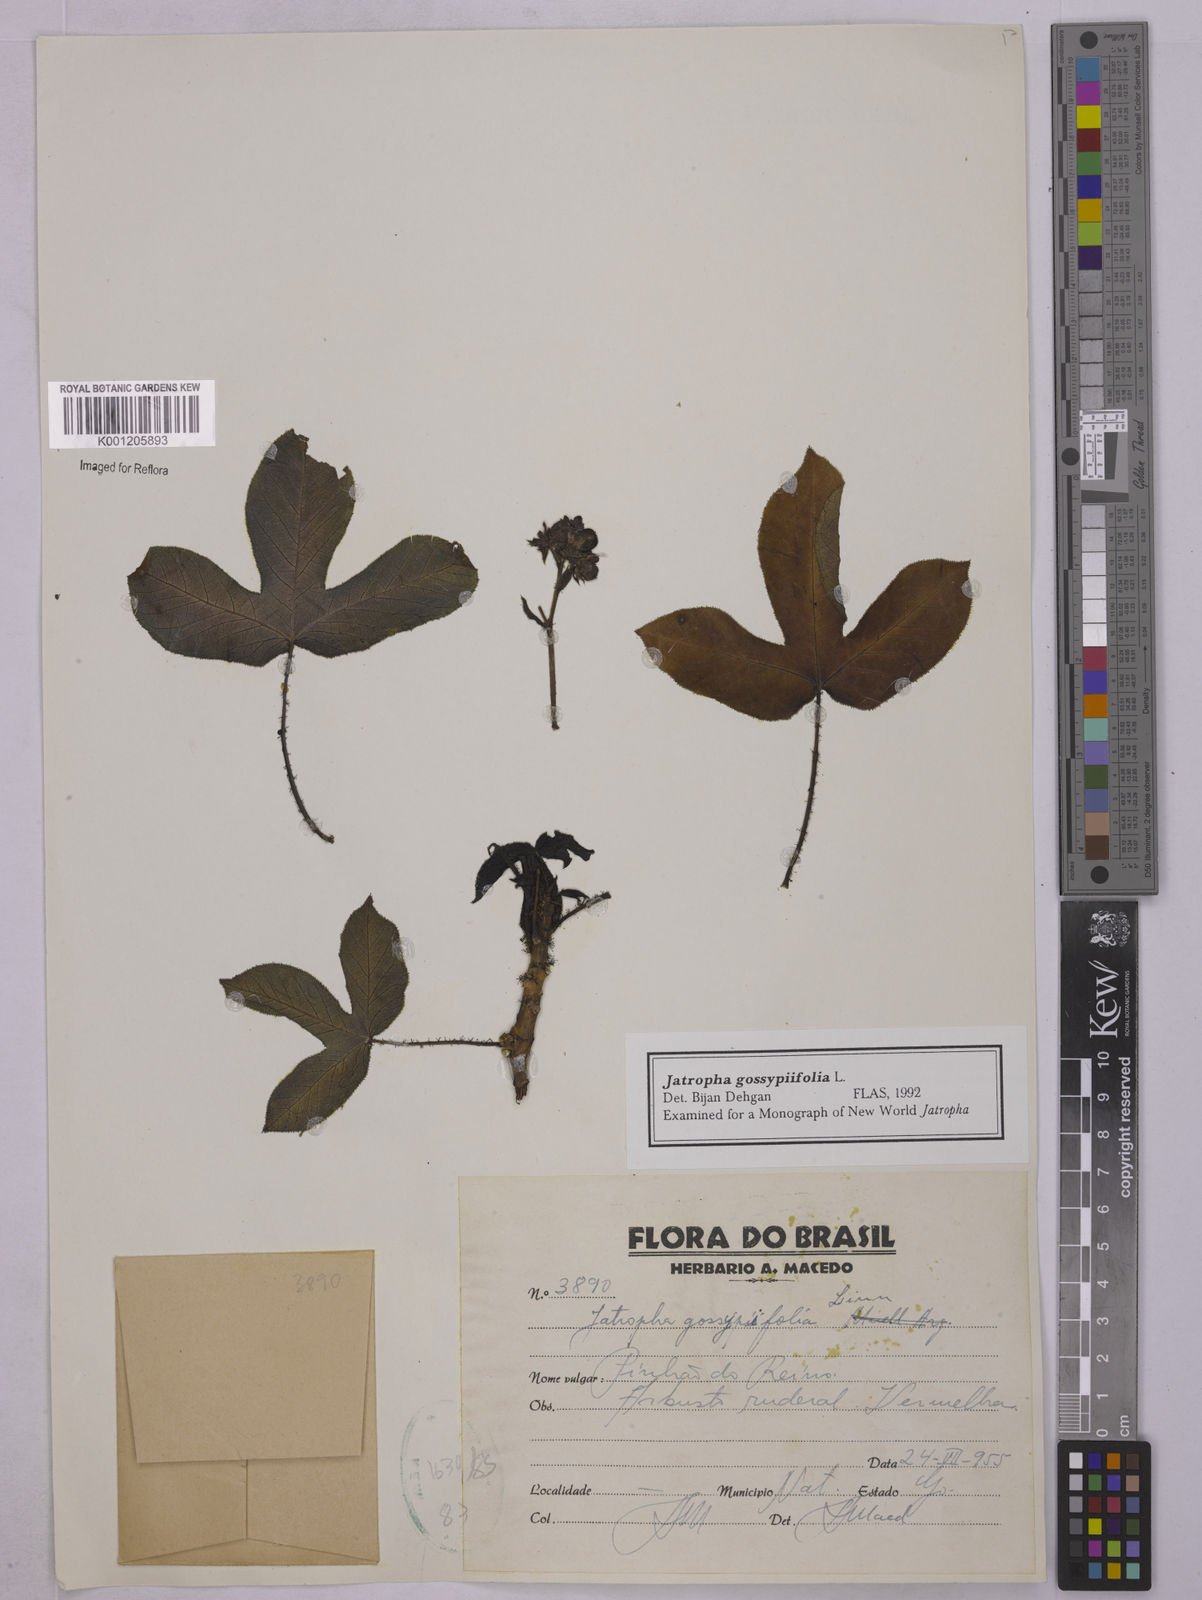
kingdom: Plantae
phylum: Tracheophyta
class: Magnoliopsida
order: Malpighiales
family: Euphorbiaceae
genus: Jatropha
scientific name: Jatropha gossypiifolia
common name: Bellyache bush
